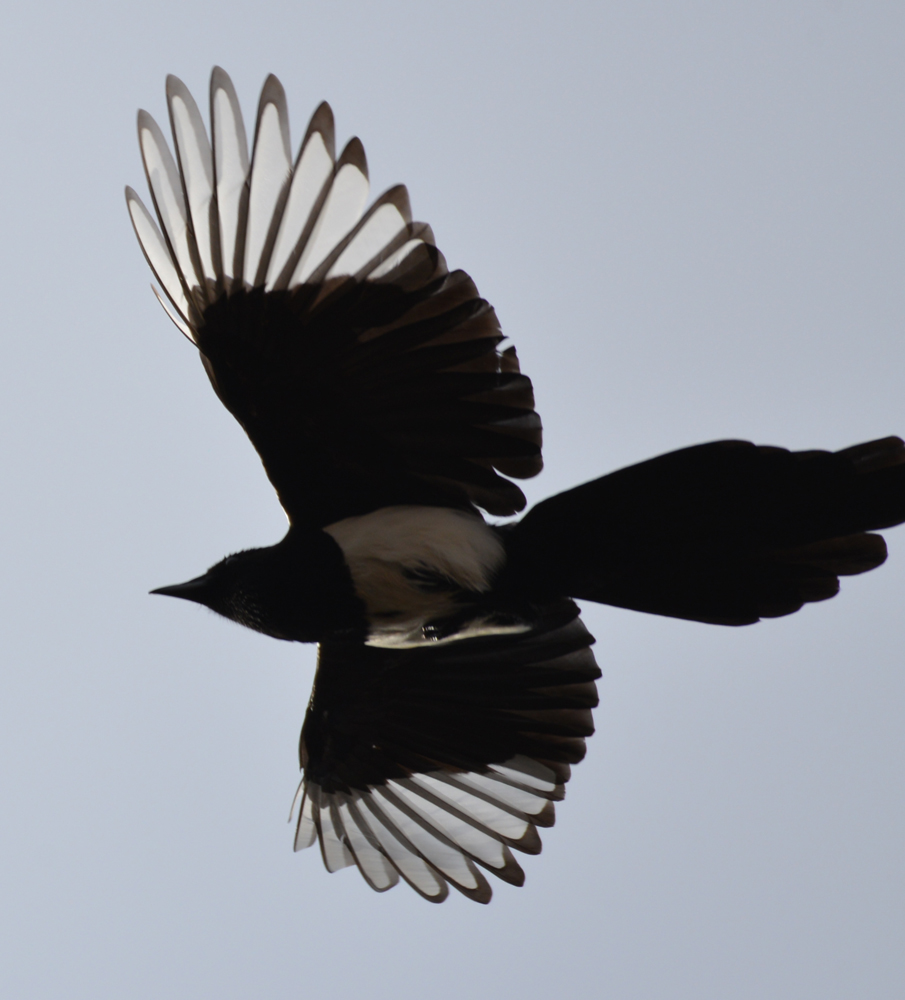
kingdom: Animalia
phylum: Chordata
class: Aves
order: Passeriformes
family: Corvidae
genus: Pica
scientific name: Pica pica
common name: Eurasian magpie
